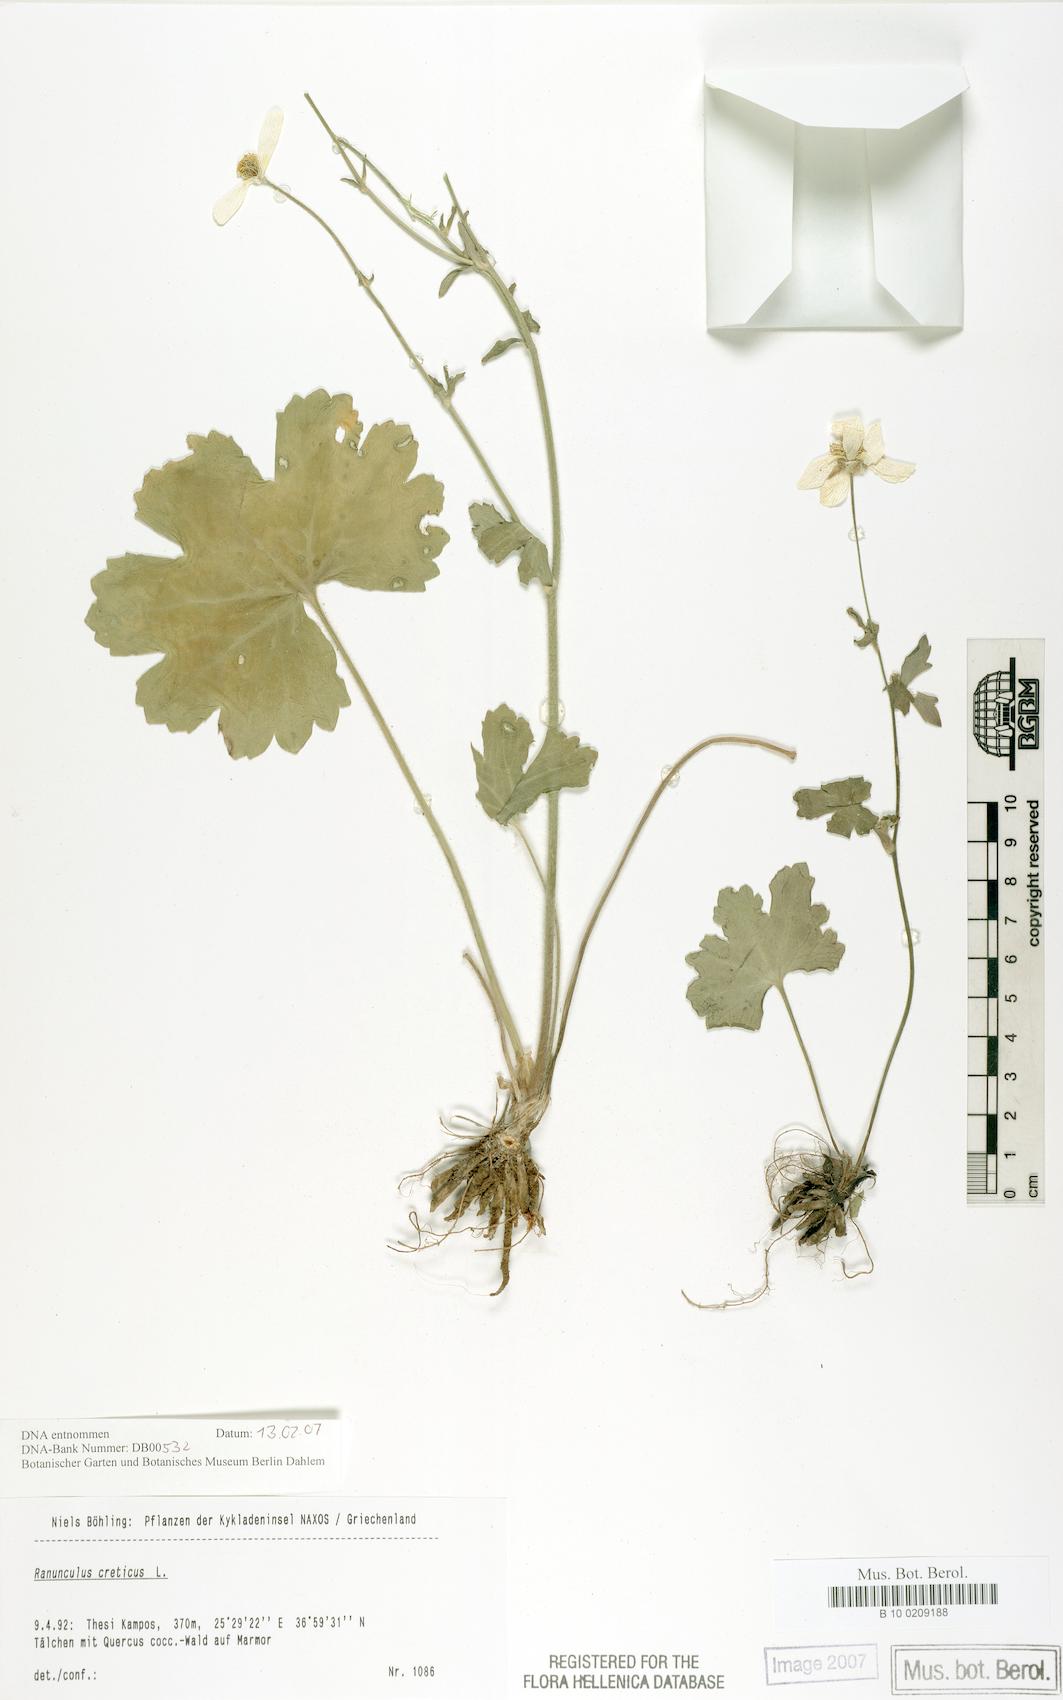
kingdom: Plantae
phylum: Tracheophyta
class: Magnoliopsida
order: Ranunculales
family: Ranunculaceae
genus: Ranunculus
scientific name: Ranunculus creticus
